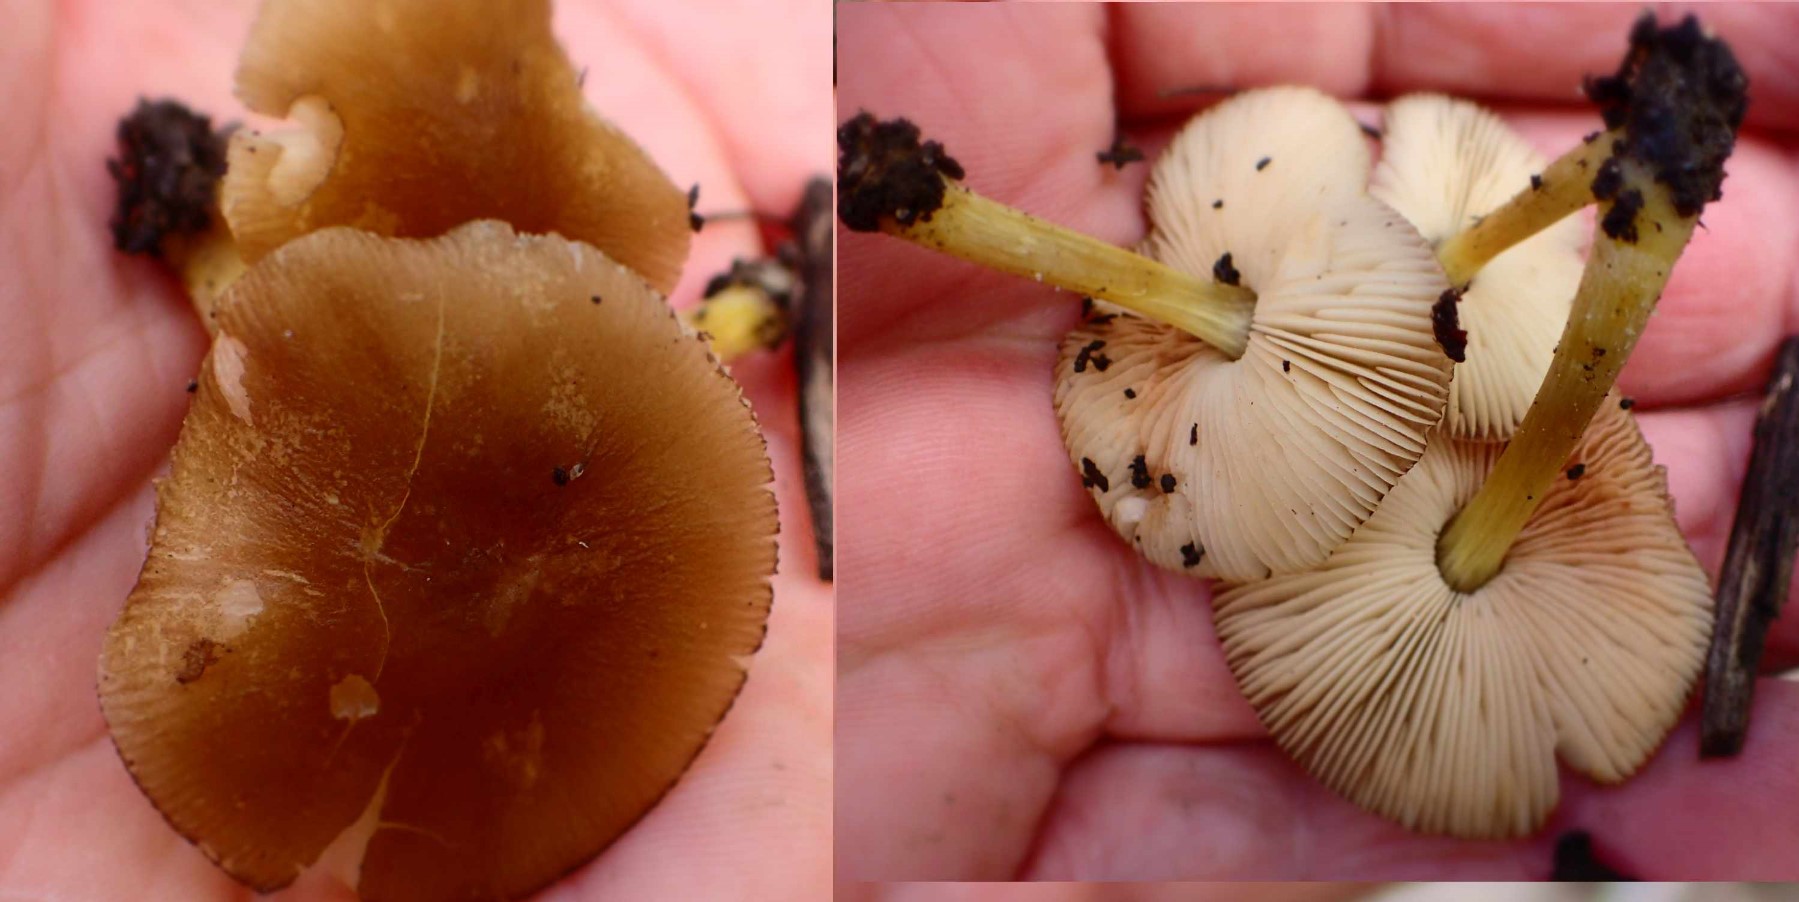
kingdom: Fungi
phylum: Basidiomycota
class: Agaricomycetes
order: Agaricales
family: Pluteaceae
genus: Pluteus
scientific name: Pluteus romellii
